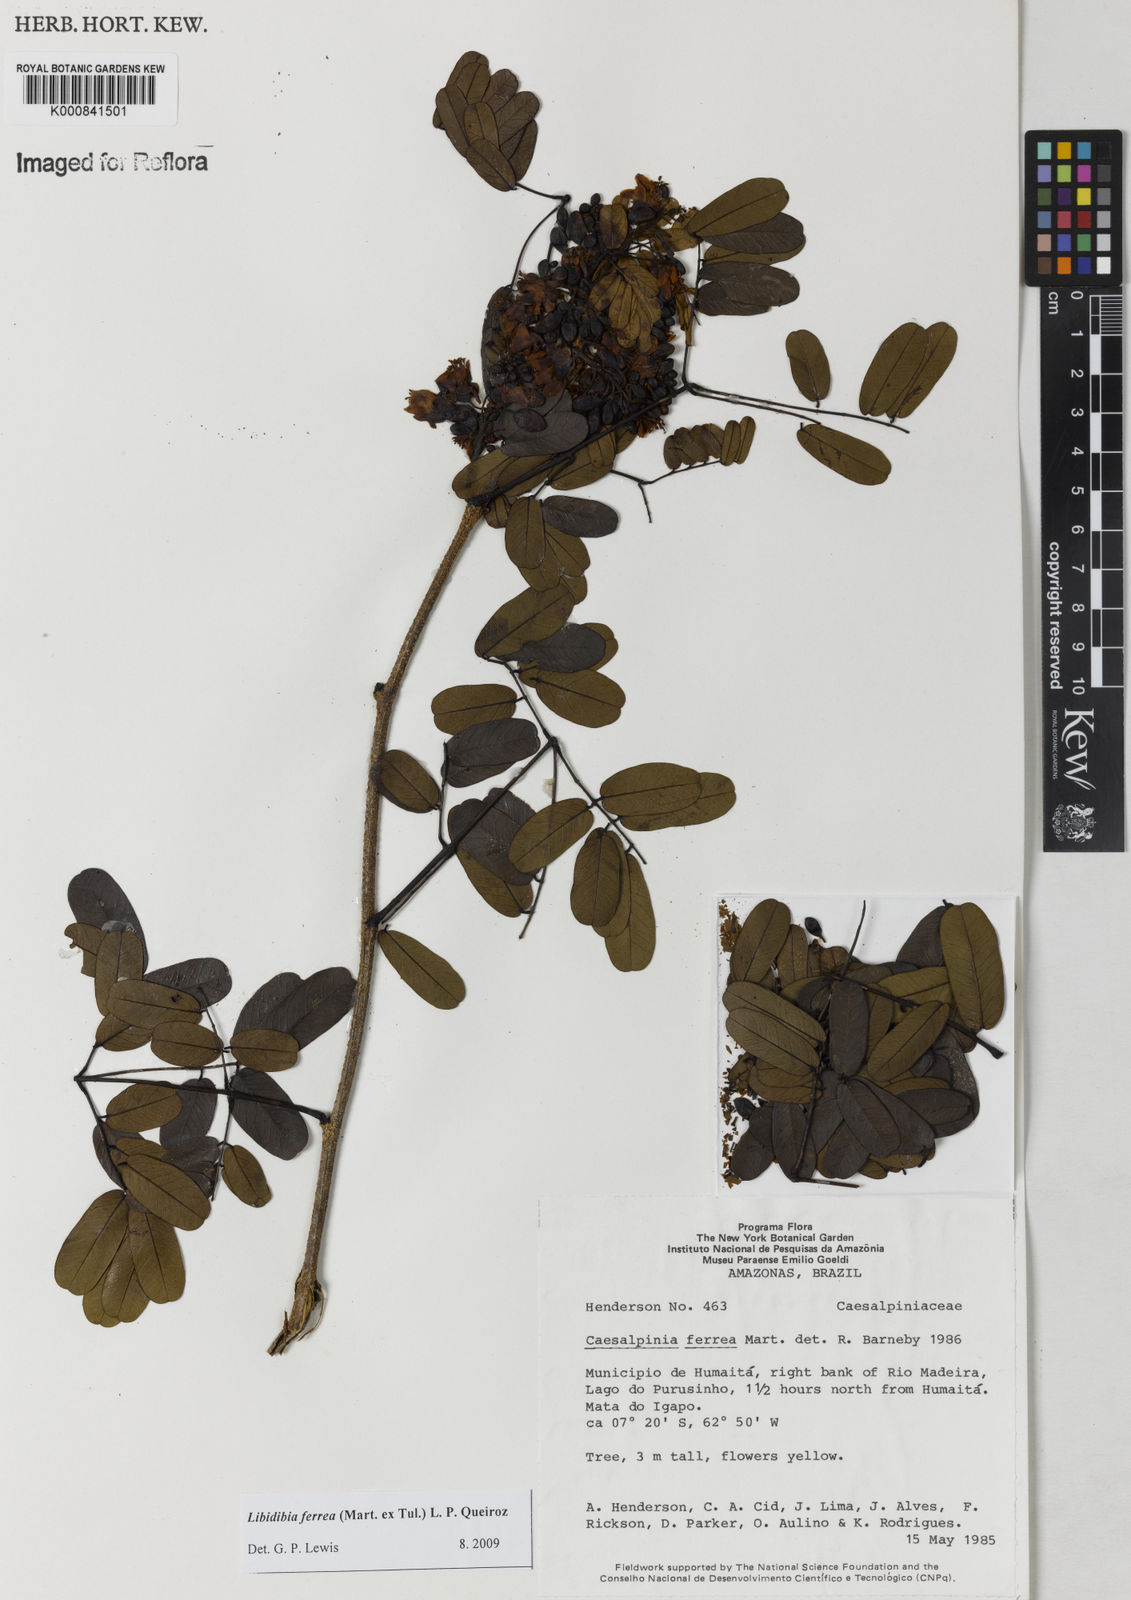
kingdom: Plantae
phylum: Tracheophyta
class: Magnoliopsida
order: Fabales
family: Fabaceae
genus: Libidibia
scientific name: Libidibia ferrea
